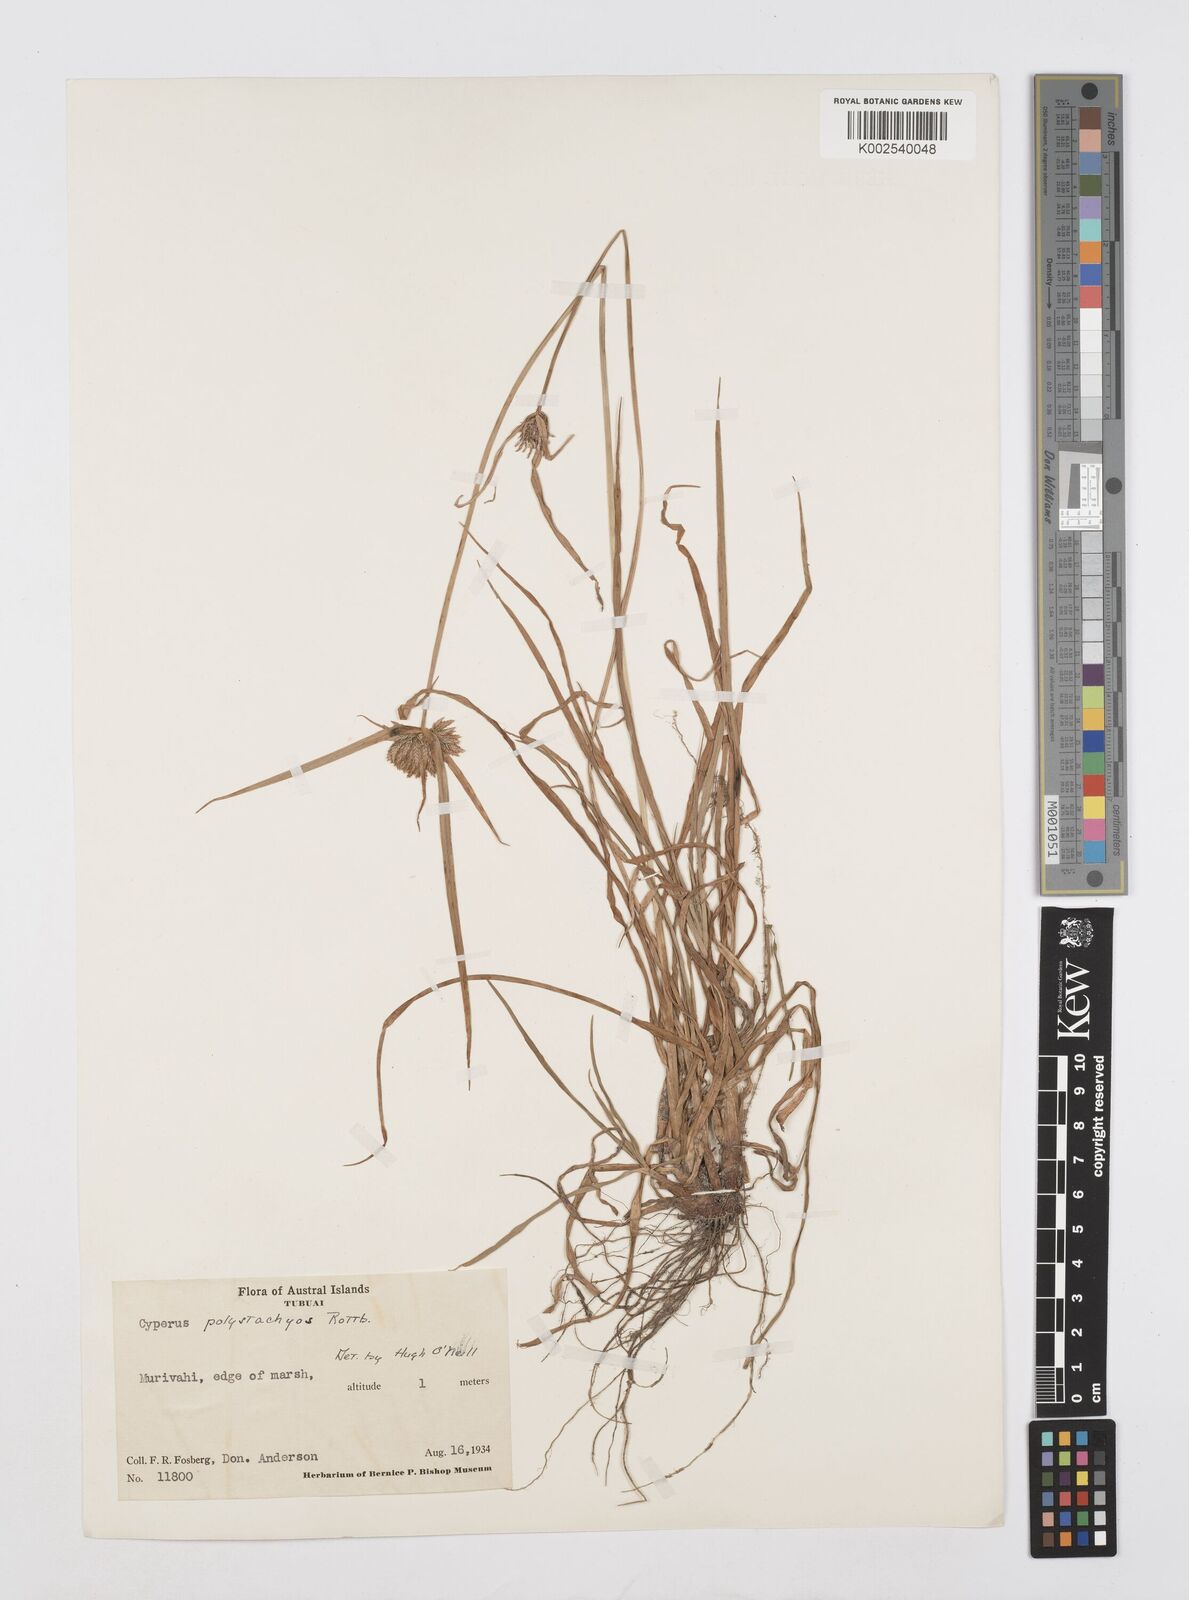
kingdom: Plantae
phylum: Tracheophyta
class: Liliopsida
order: Poales
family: Cyperaceae
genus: Cyperus
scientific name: Cyperus polystachyos
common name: Bunchy flat sedge
